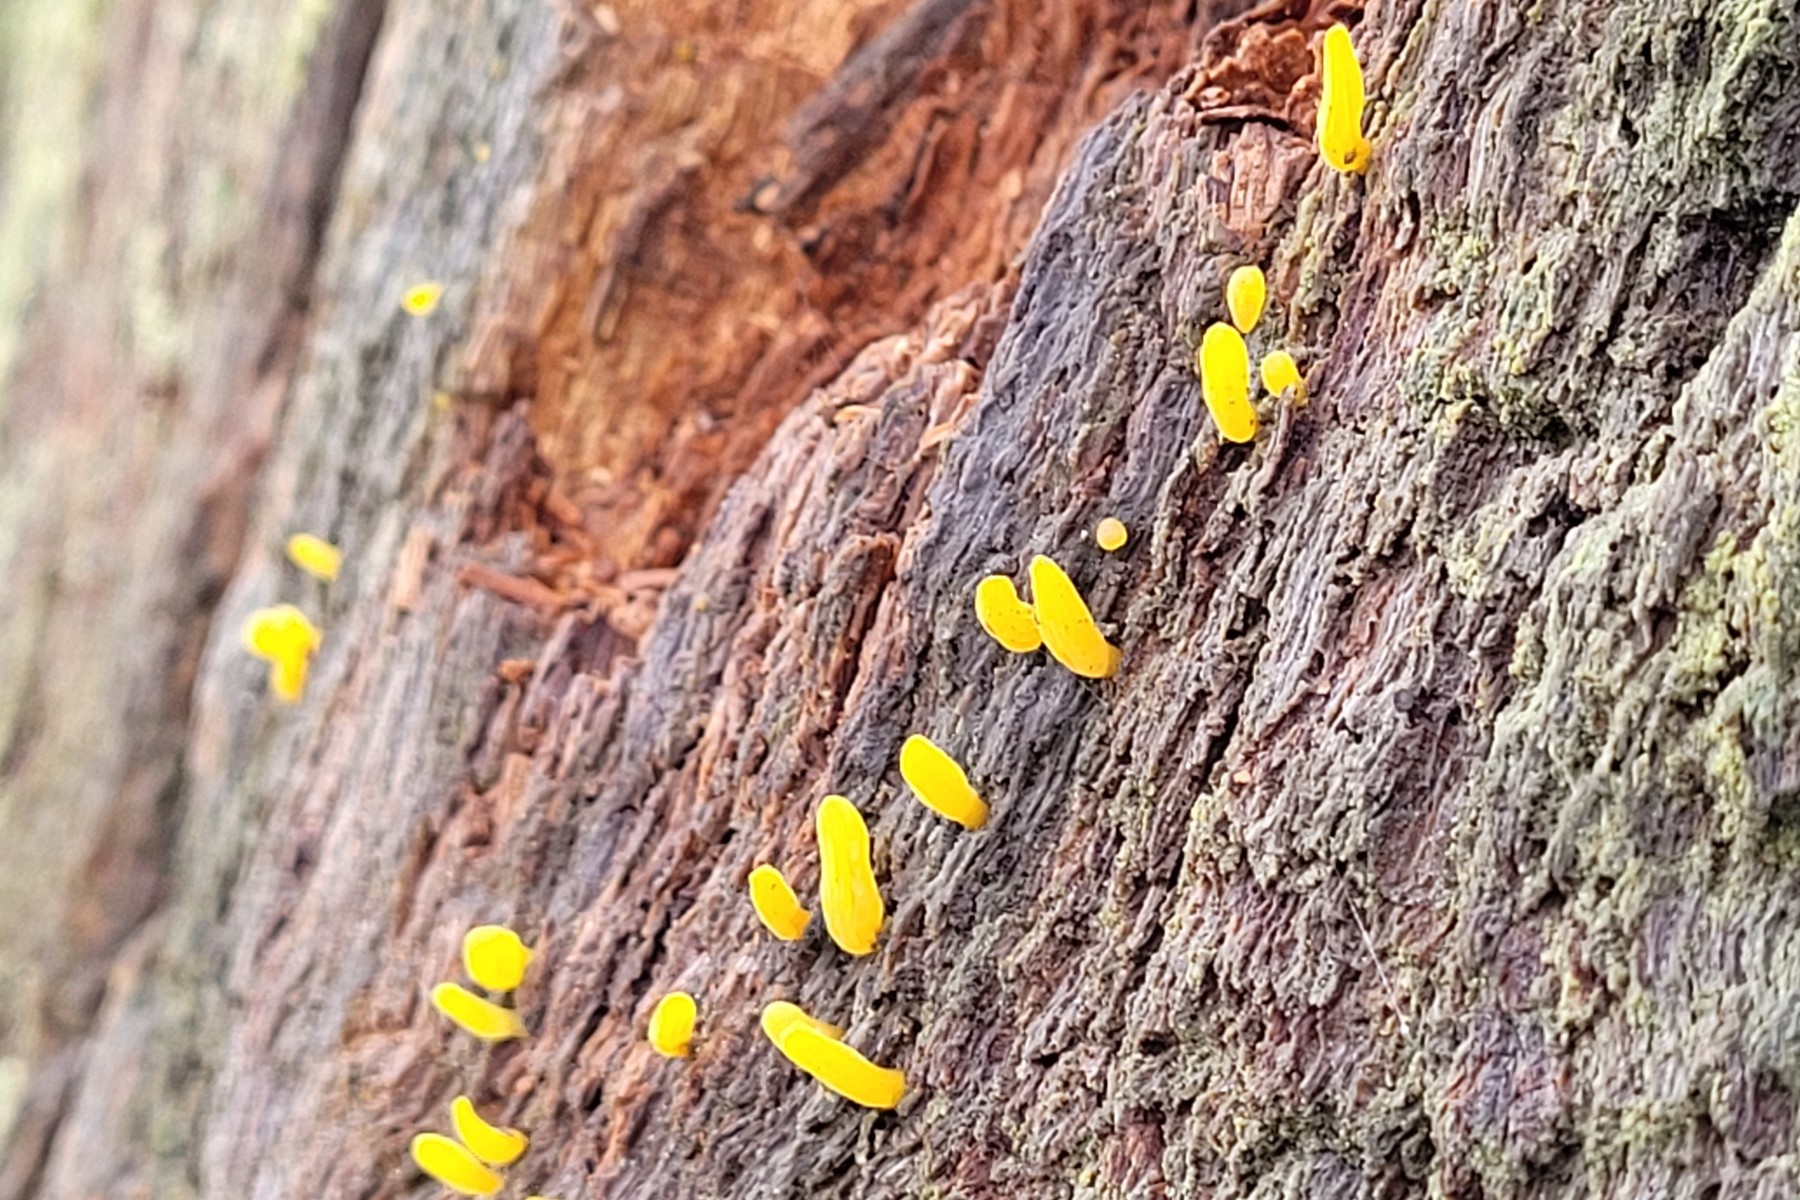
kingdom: Fungi
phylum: Basidiomycota
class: Dacrymycetes
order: Dacrymycetales
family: Dacrymycetaceae
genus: Calocera
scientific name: Calocera cornea
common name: liden guldgaffel
